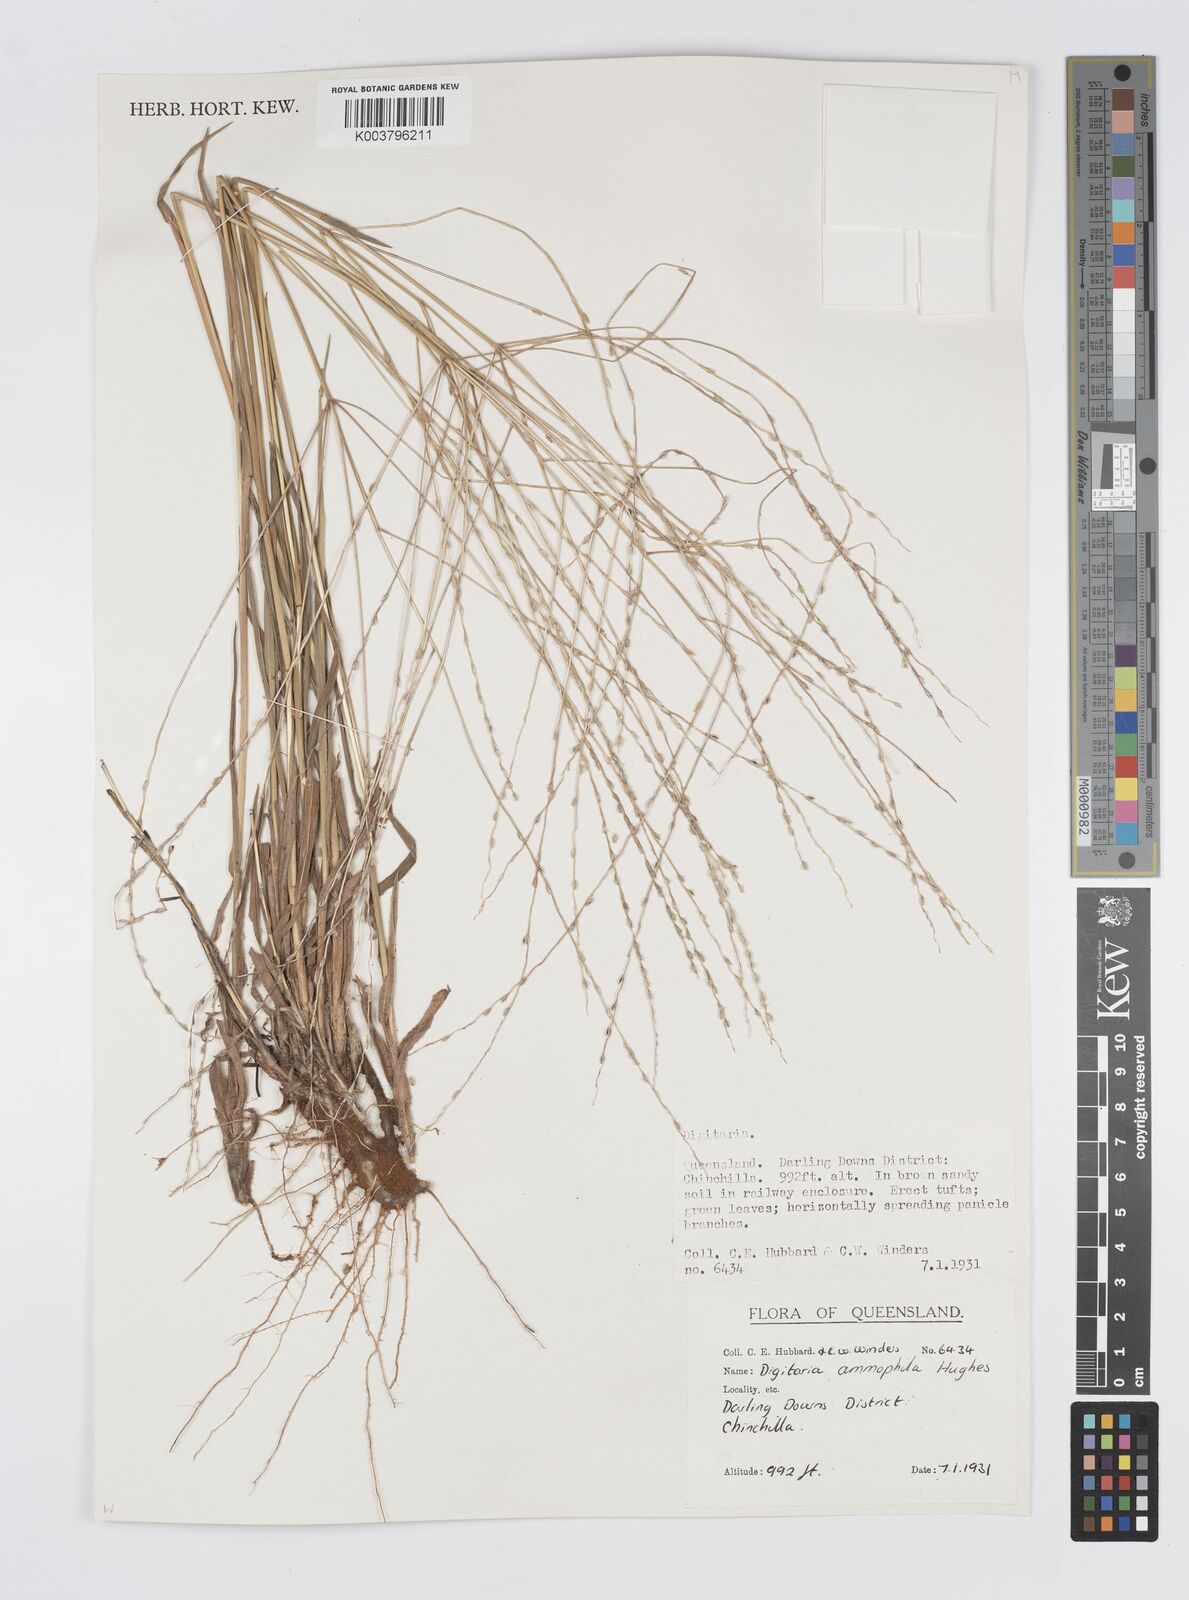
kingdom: Plantae
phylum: Tracheophyta
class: Liliopsida
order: Poales
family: Poaceae
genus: Digitaria
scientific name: Digitaria ammophila
